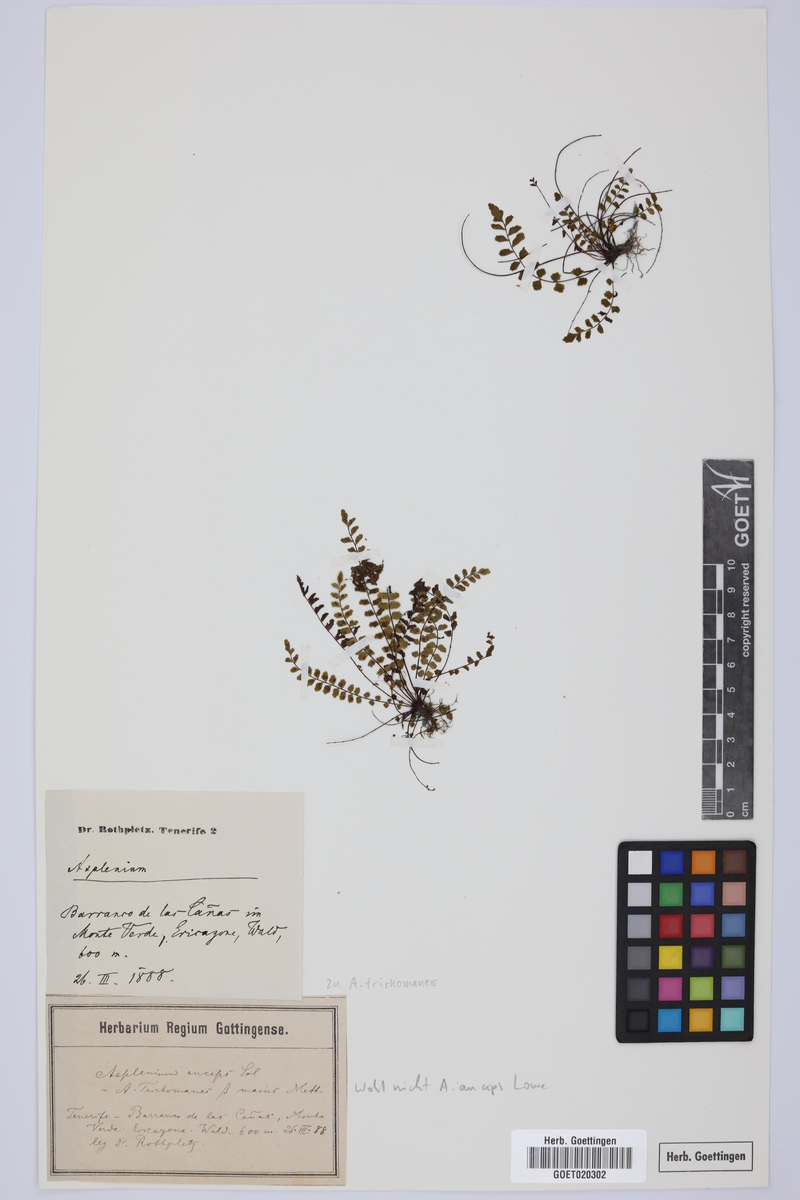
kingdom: Plantae
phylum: Tracheophyta
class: Polypodiopsida
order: Polypodiales
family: Aspleniaceae
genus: Asplenium
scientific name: Asplenium trichomanes
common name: Maidenhair spleenwort
